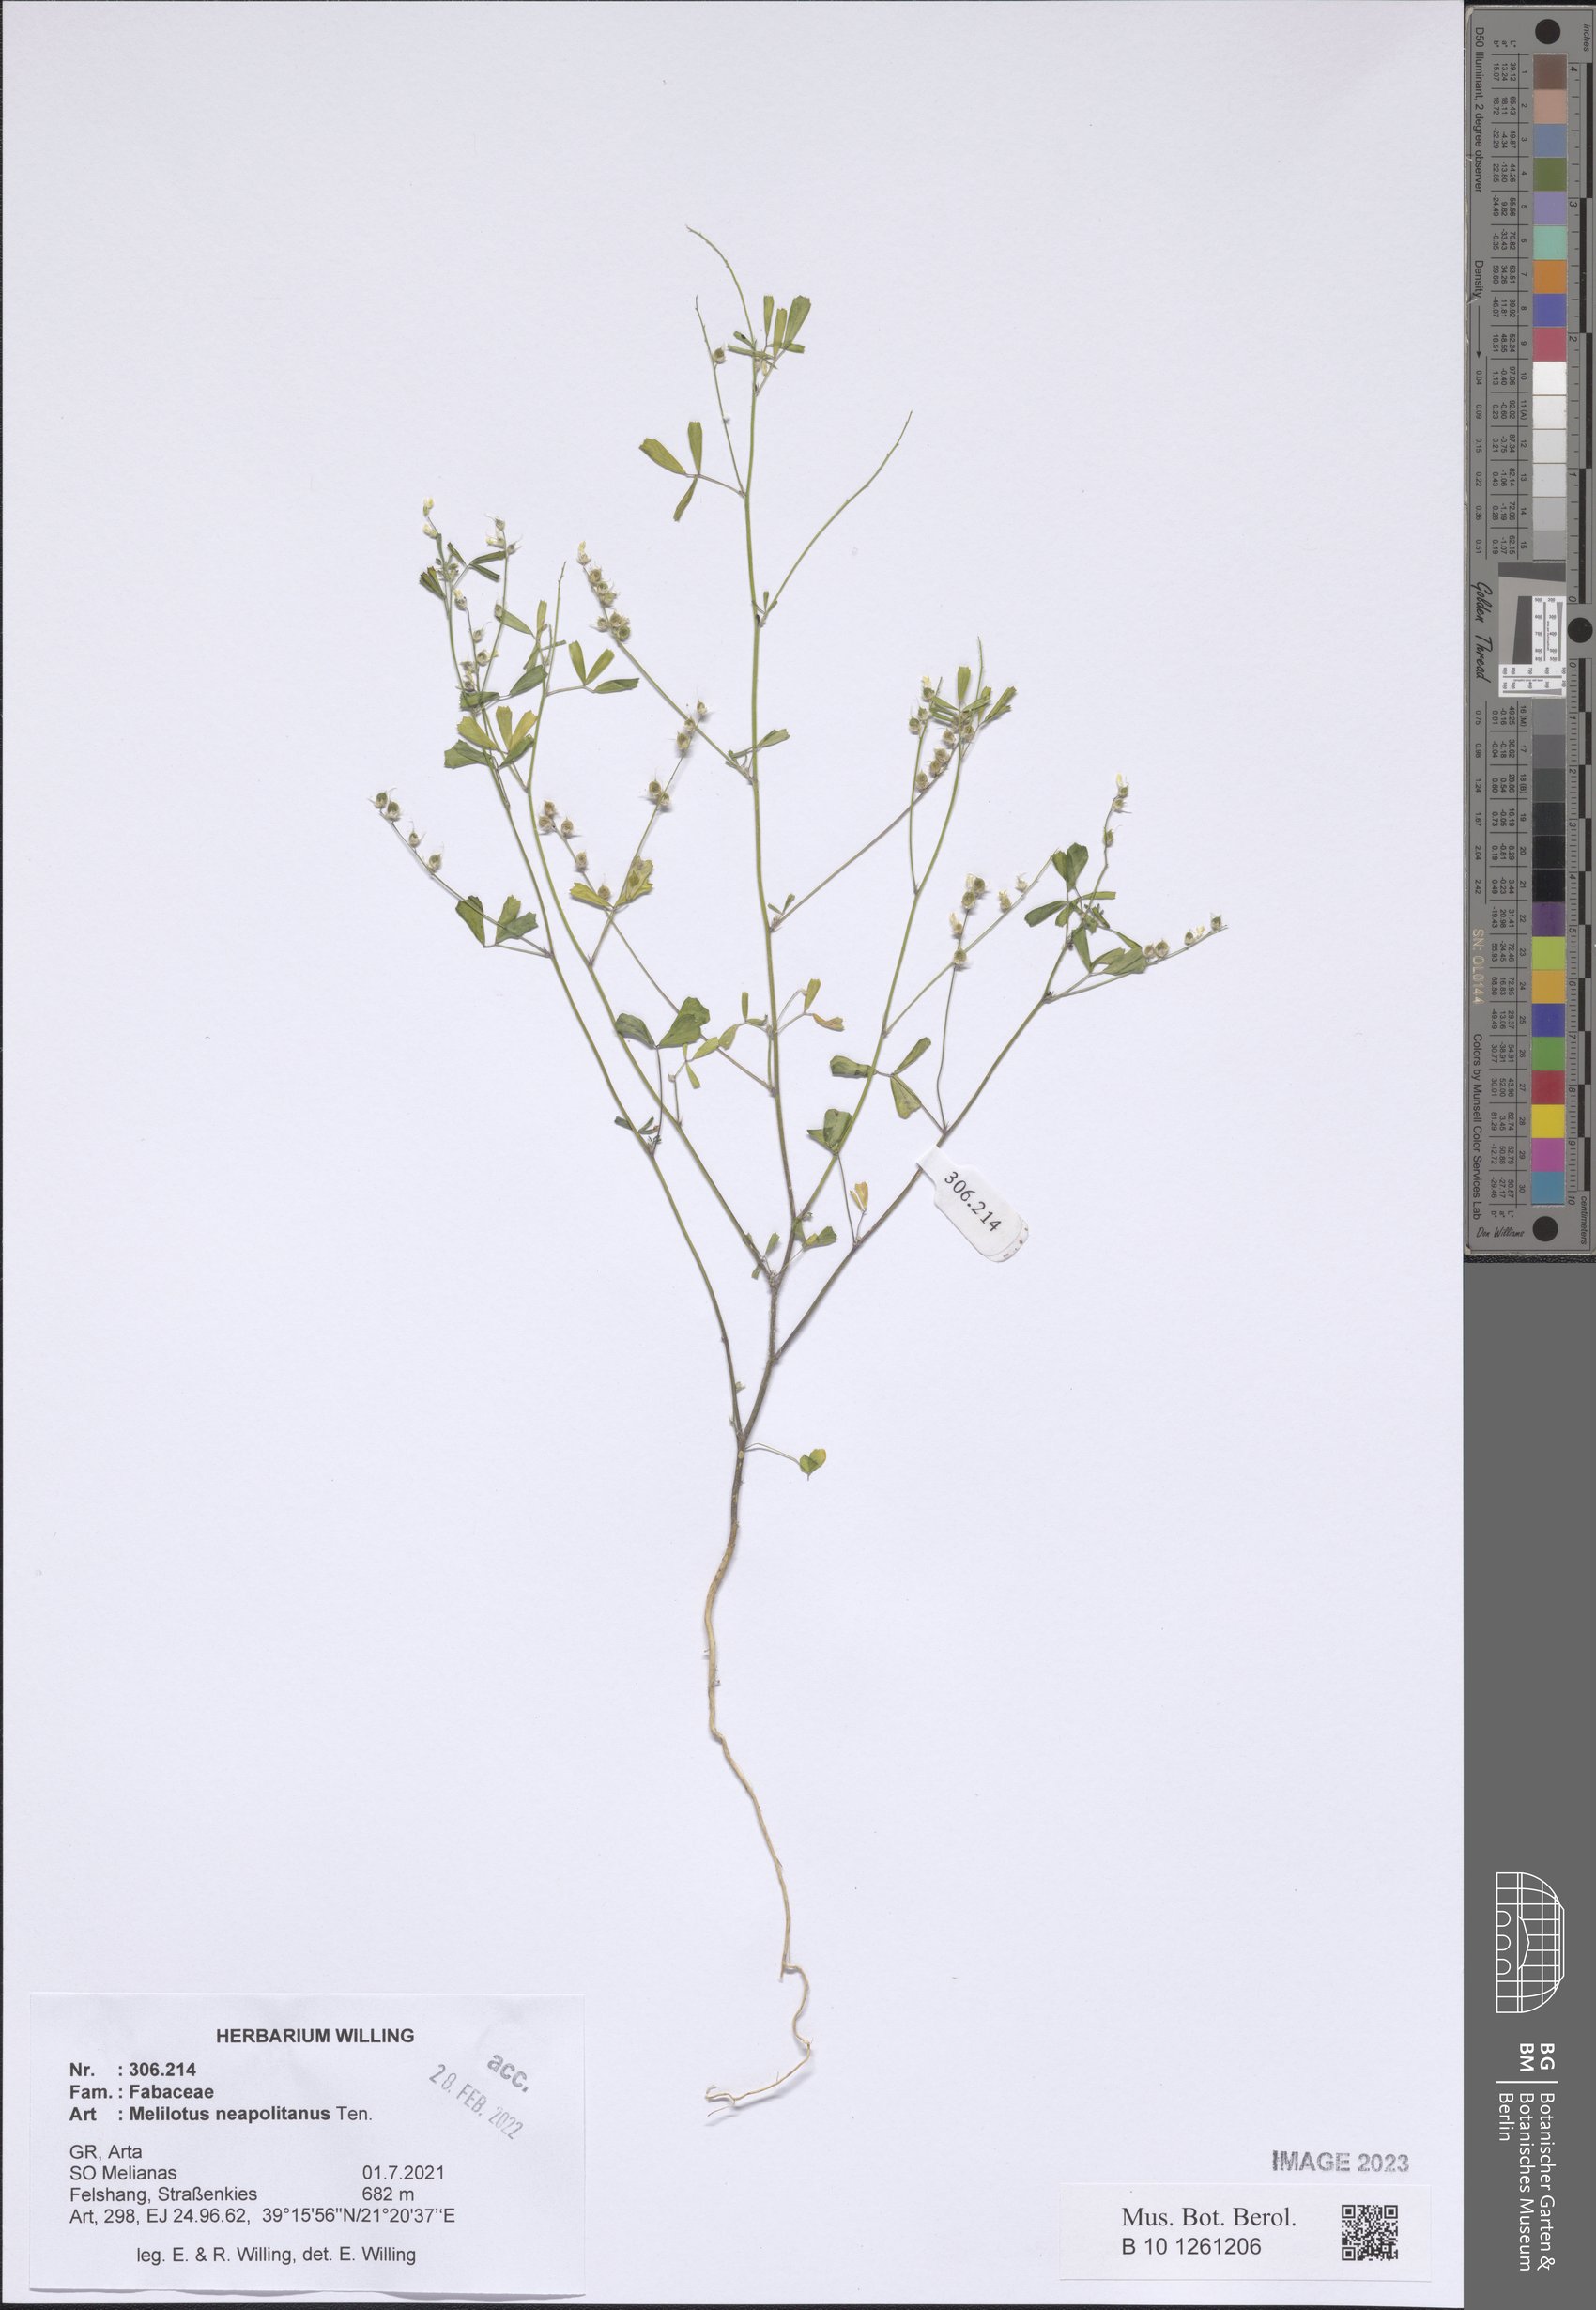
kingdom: Plantae
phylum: Tracheophyta
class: Magnoliopsida
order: Fabales
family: Fabaceae
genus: Melilotus
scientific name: Melilotus neapolitanus
